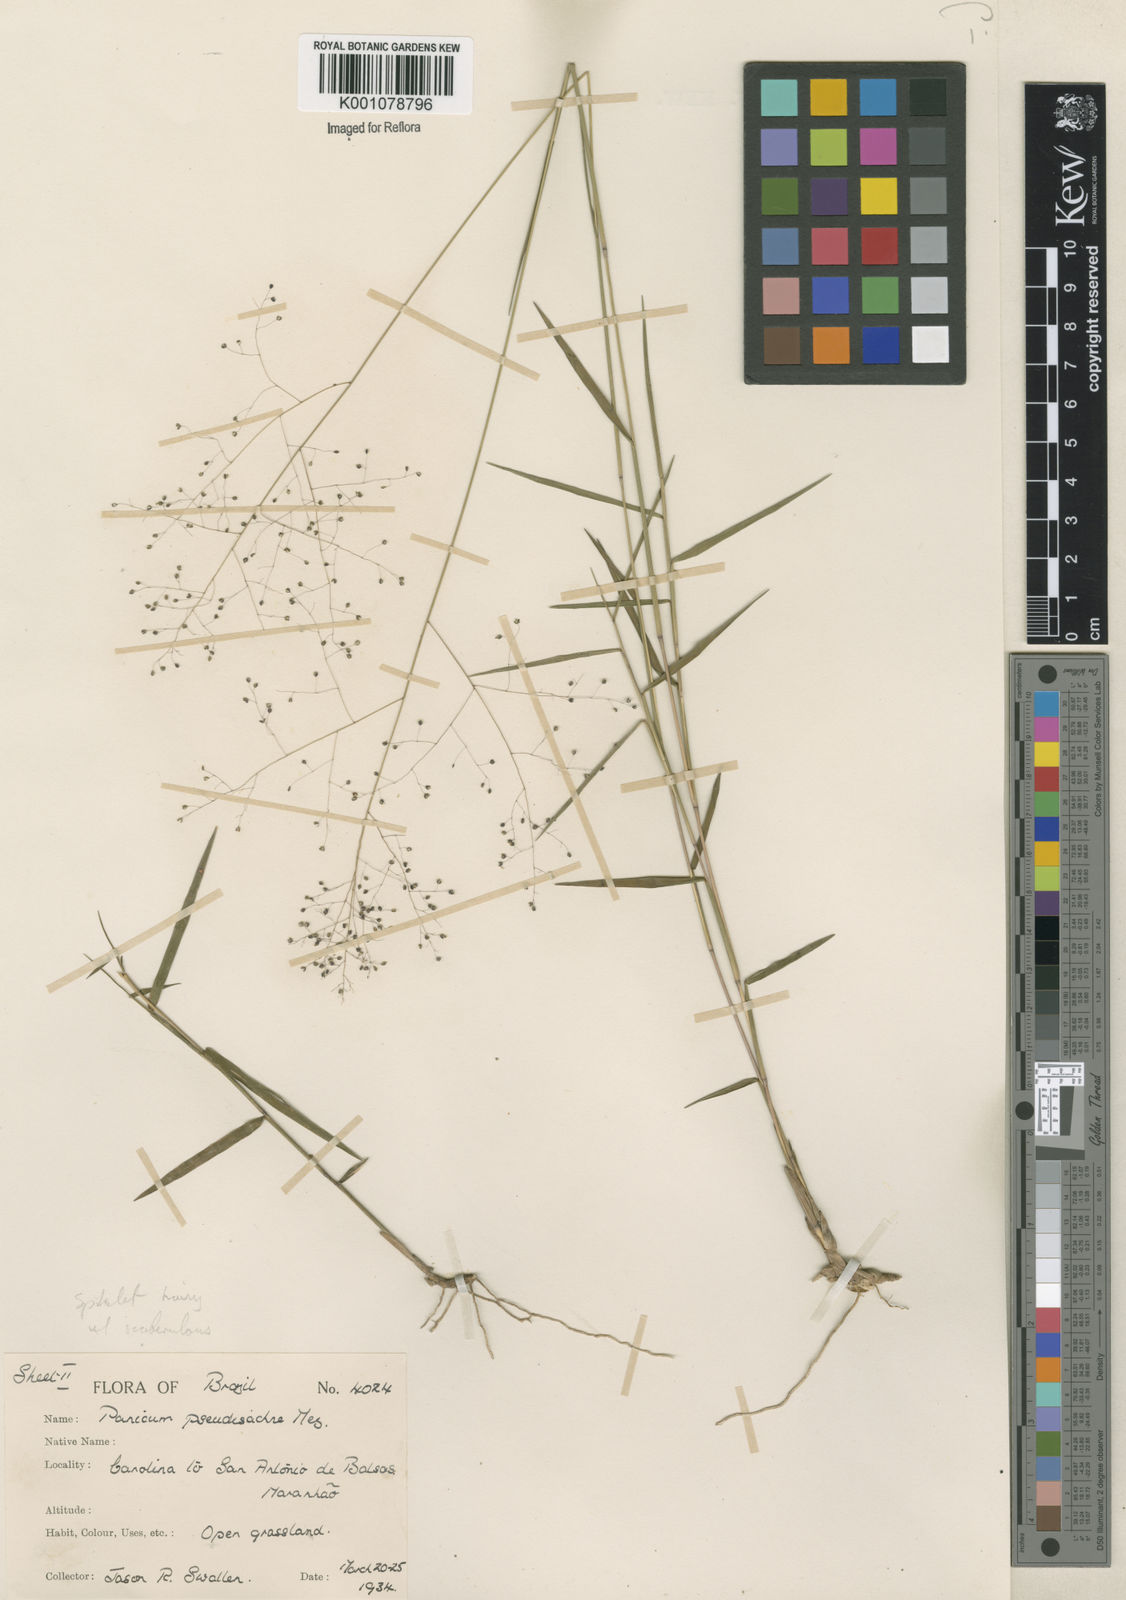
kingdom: Plantae
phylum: Tracheophyta
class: Liliopsida
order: Poales
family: Poaceae
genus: Trichanthecium
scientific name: Trichanthecium pseudisachne
